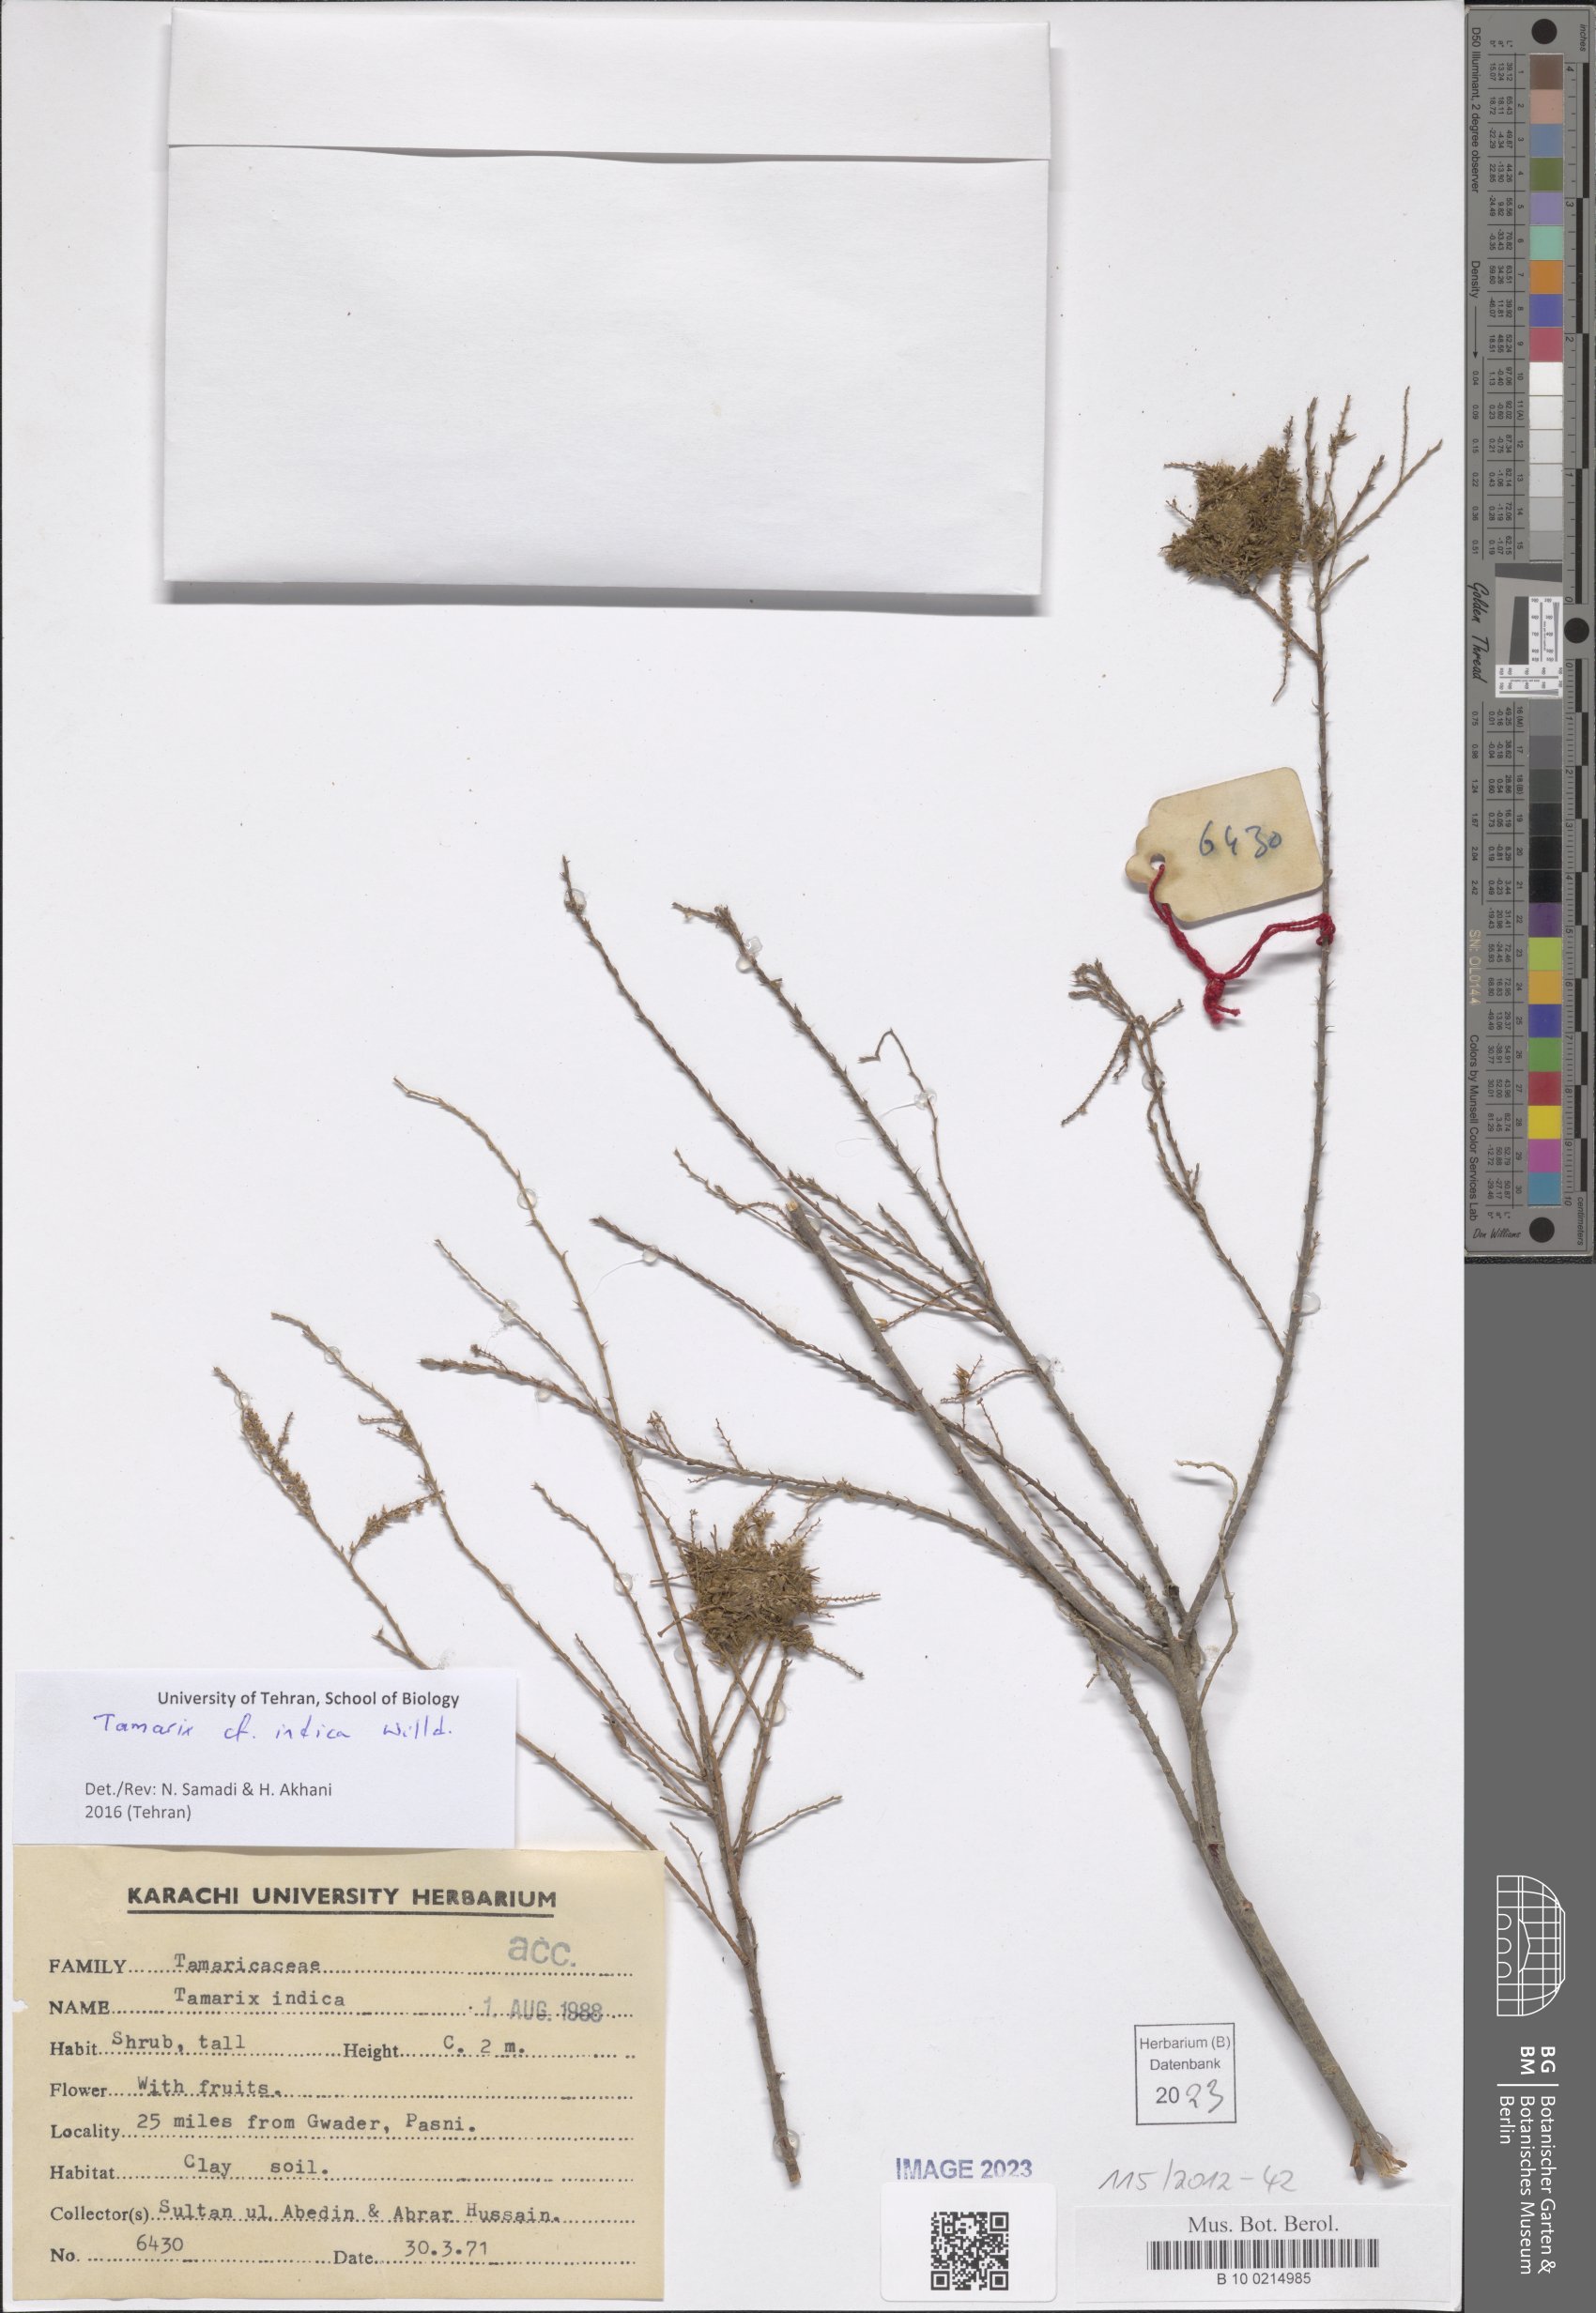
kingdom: Plantae
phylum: Tracheophyta
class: Magnoliopsida
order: Caryophyllales
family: Tamaricaceae
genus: Tamarix
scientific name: Tamarix indica
